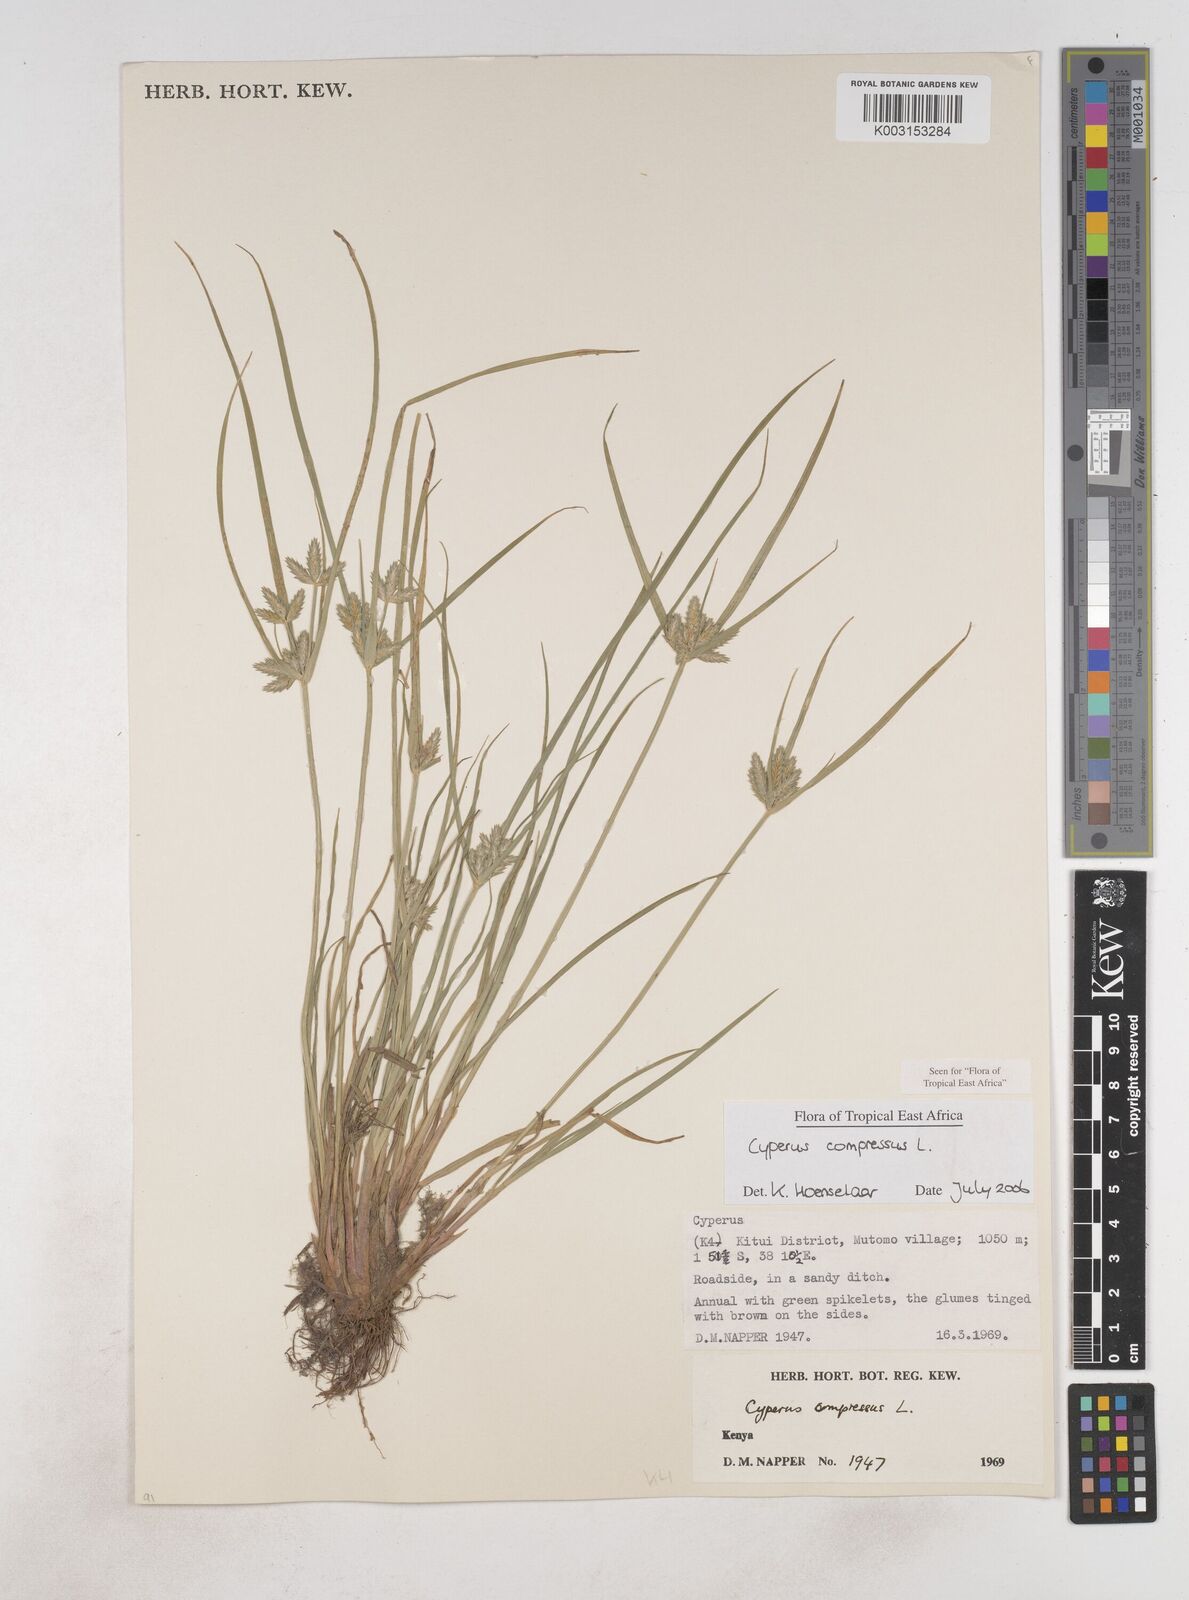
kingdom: Plantae
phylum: Tracheophyta
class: Liliopsida
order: Poales
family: Cyperaceae
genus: Cyperus
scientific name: Cyperus compressus
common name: Poorland flatsedge
